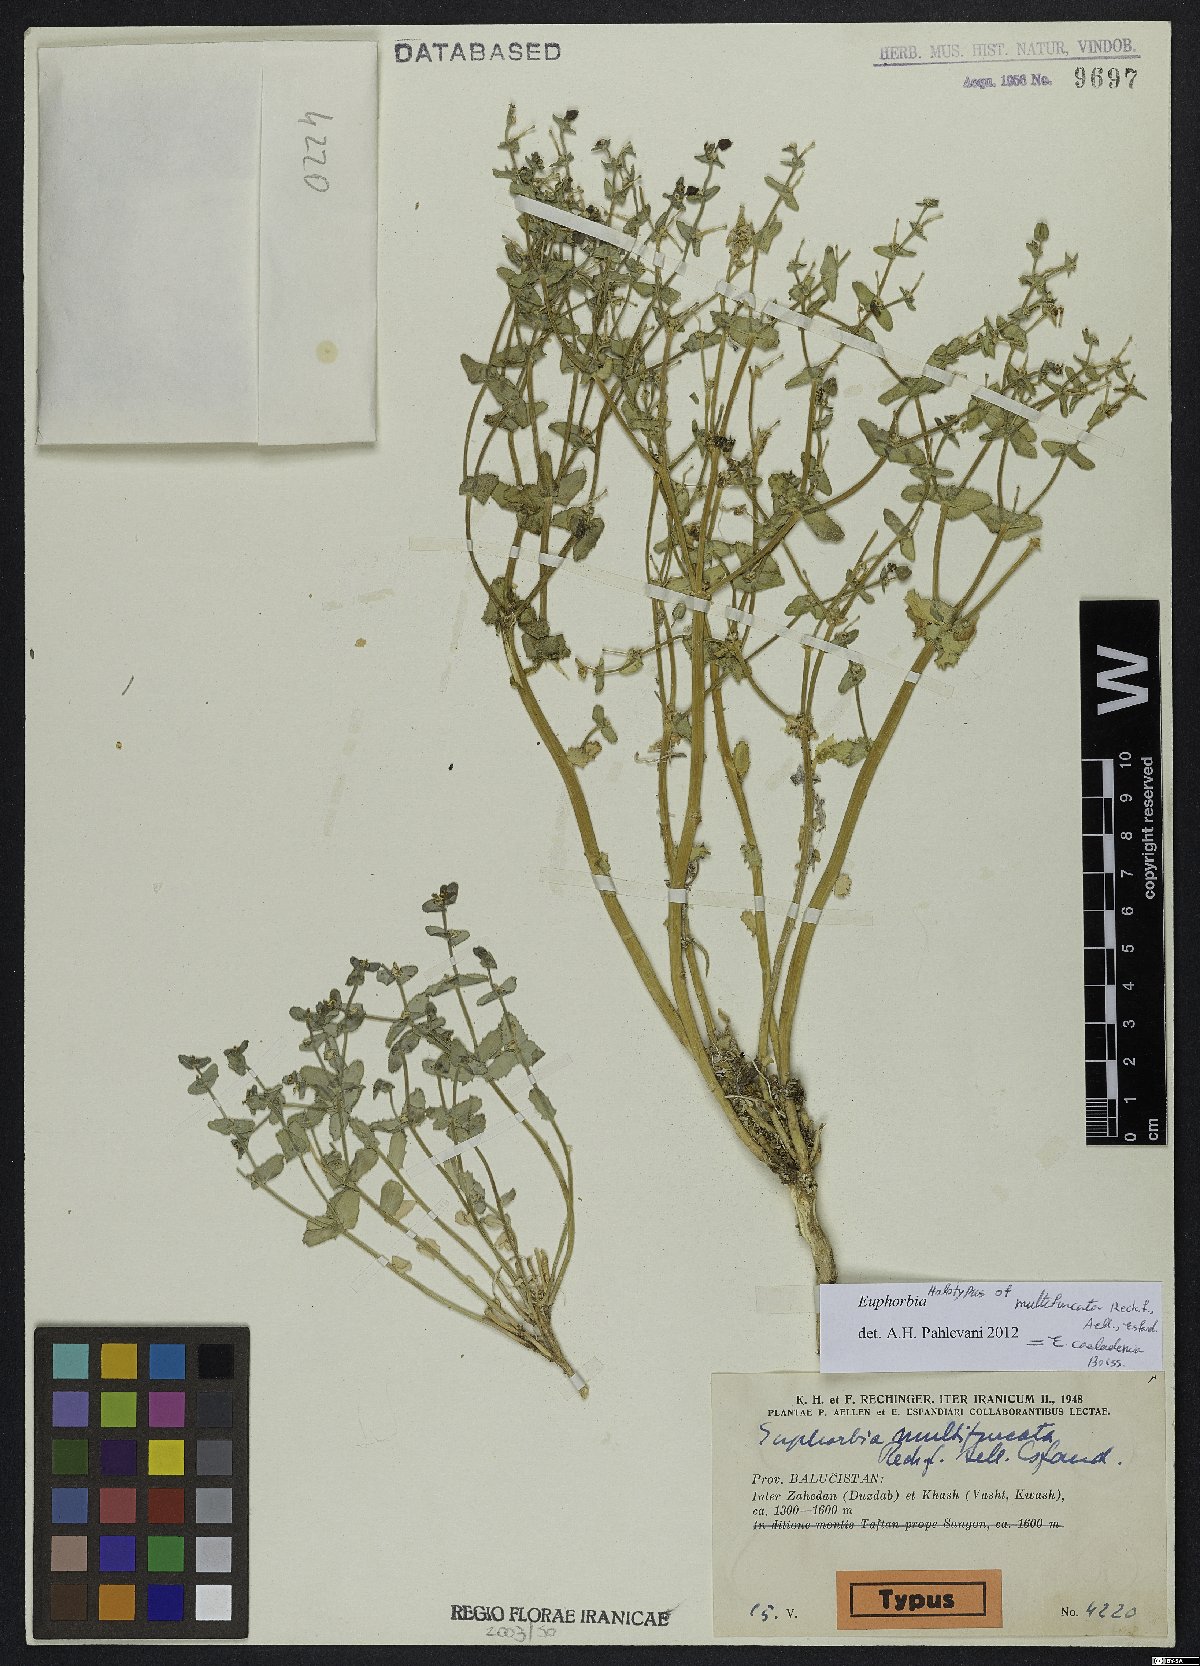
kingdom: Plantae
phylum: Tracheophyta
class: Magnoliopsida
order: Malpighiales
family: Euphorbiaceae
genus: Euphorbia
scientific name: Euphorbia caeladenia
